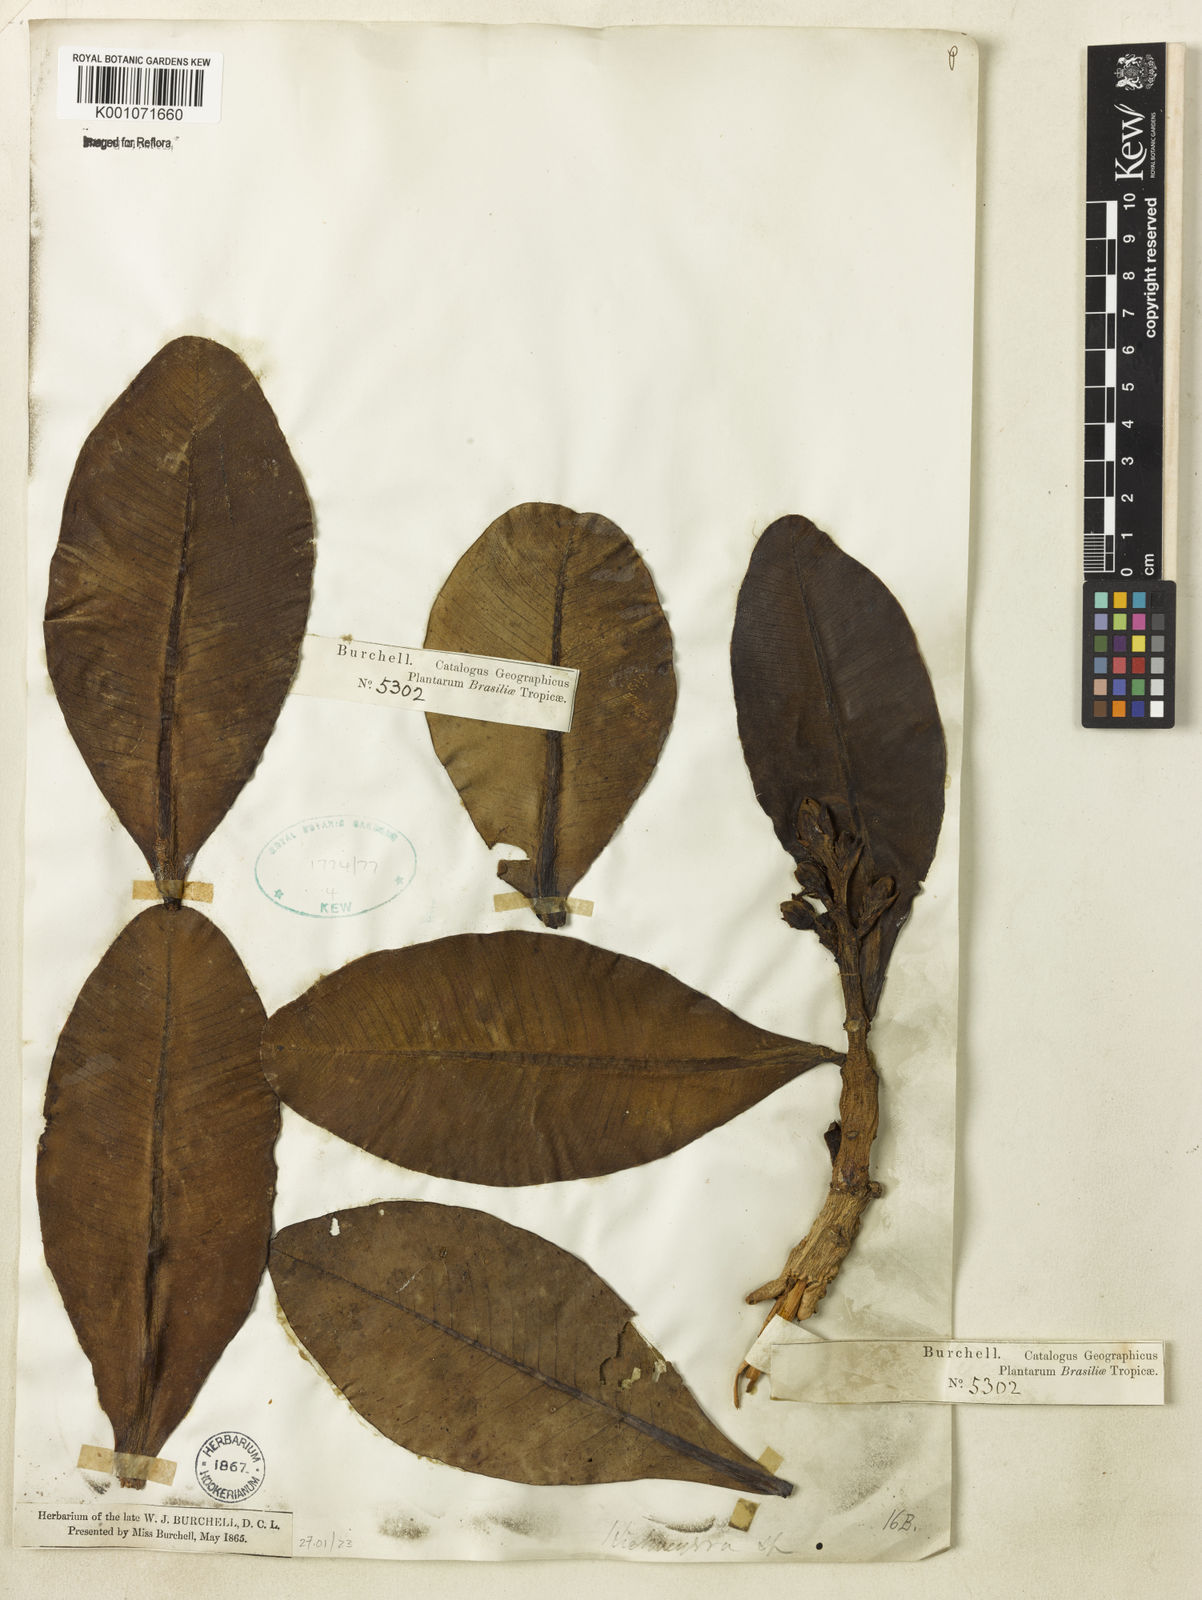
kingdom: Plantae
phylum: Tracheophyta
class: Magnoliopsida
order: Malpighiales
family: Calophyllaceae
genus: Kielmeyera
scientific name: Kielmeyera
